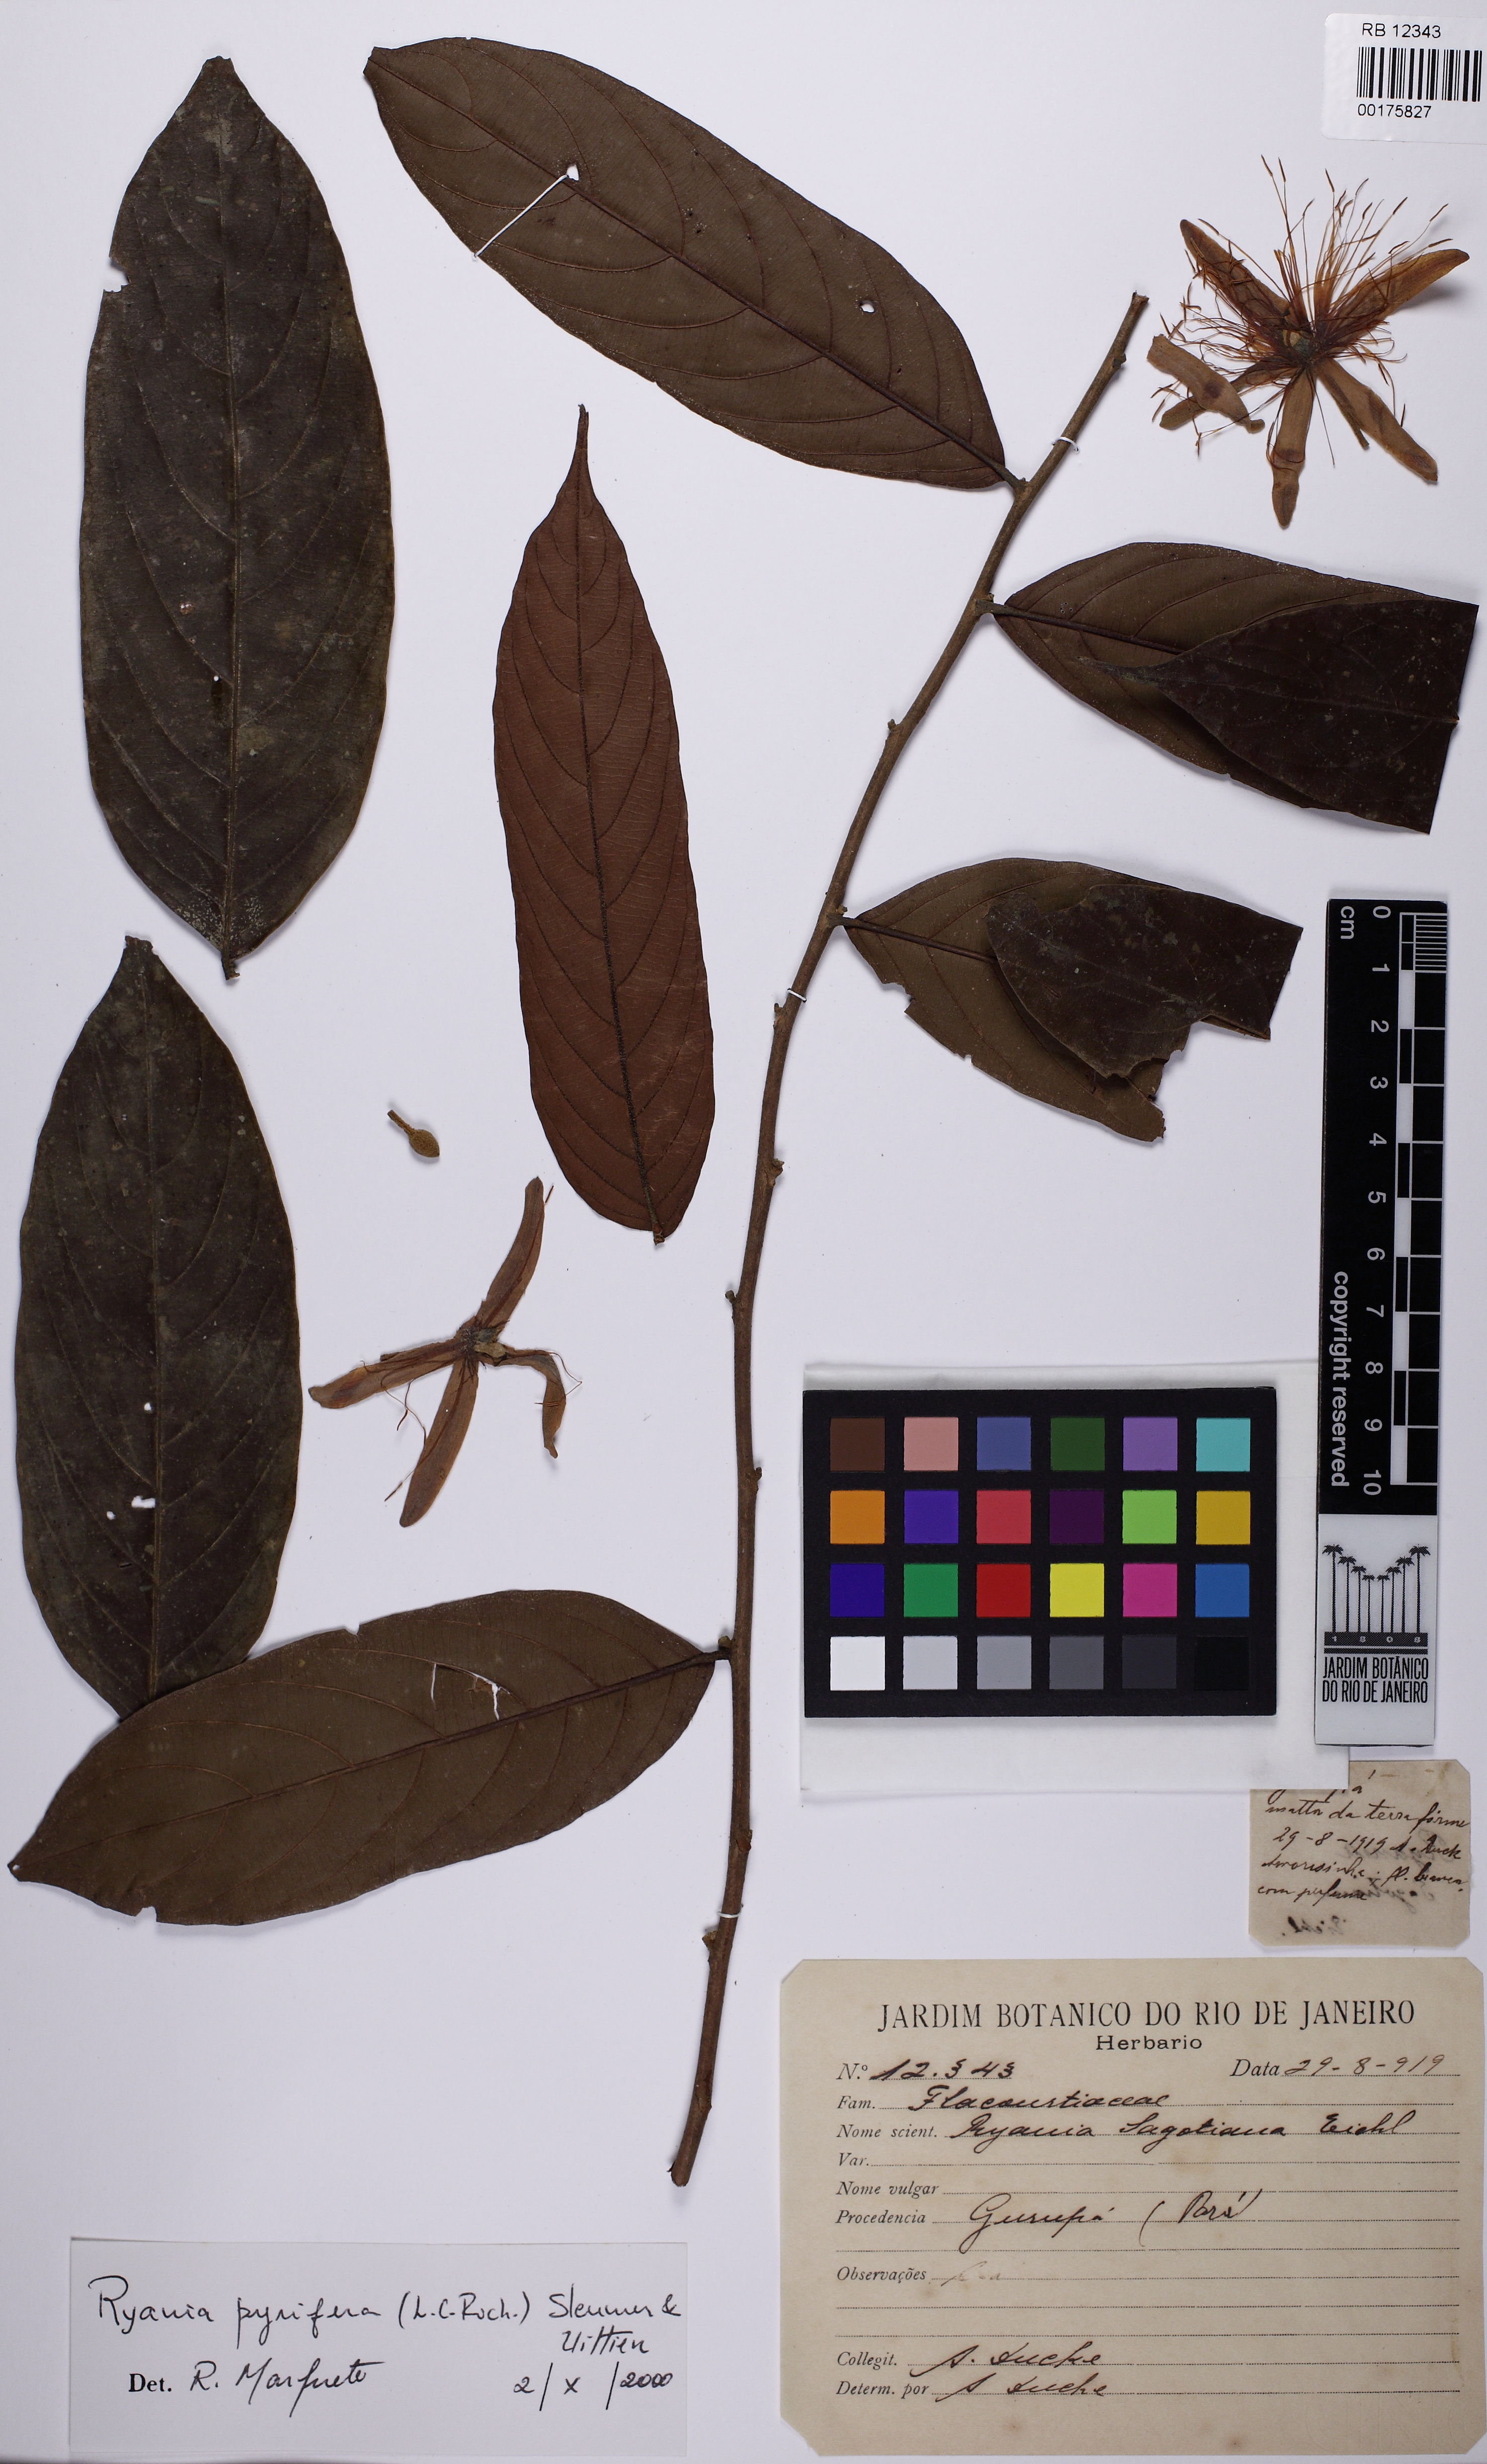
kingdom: Plantae
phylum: Tracheophyta
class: Magnoliopsida
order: Malpighiales
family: Salicaceae
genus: Ryania
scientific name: Ryania pyrifera
